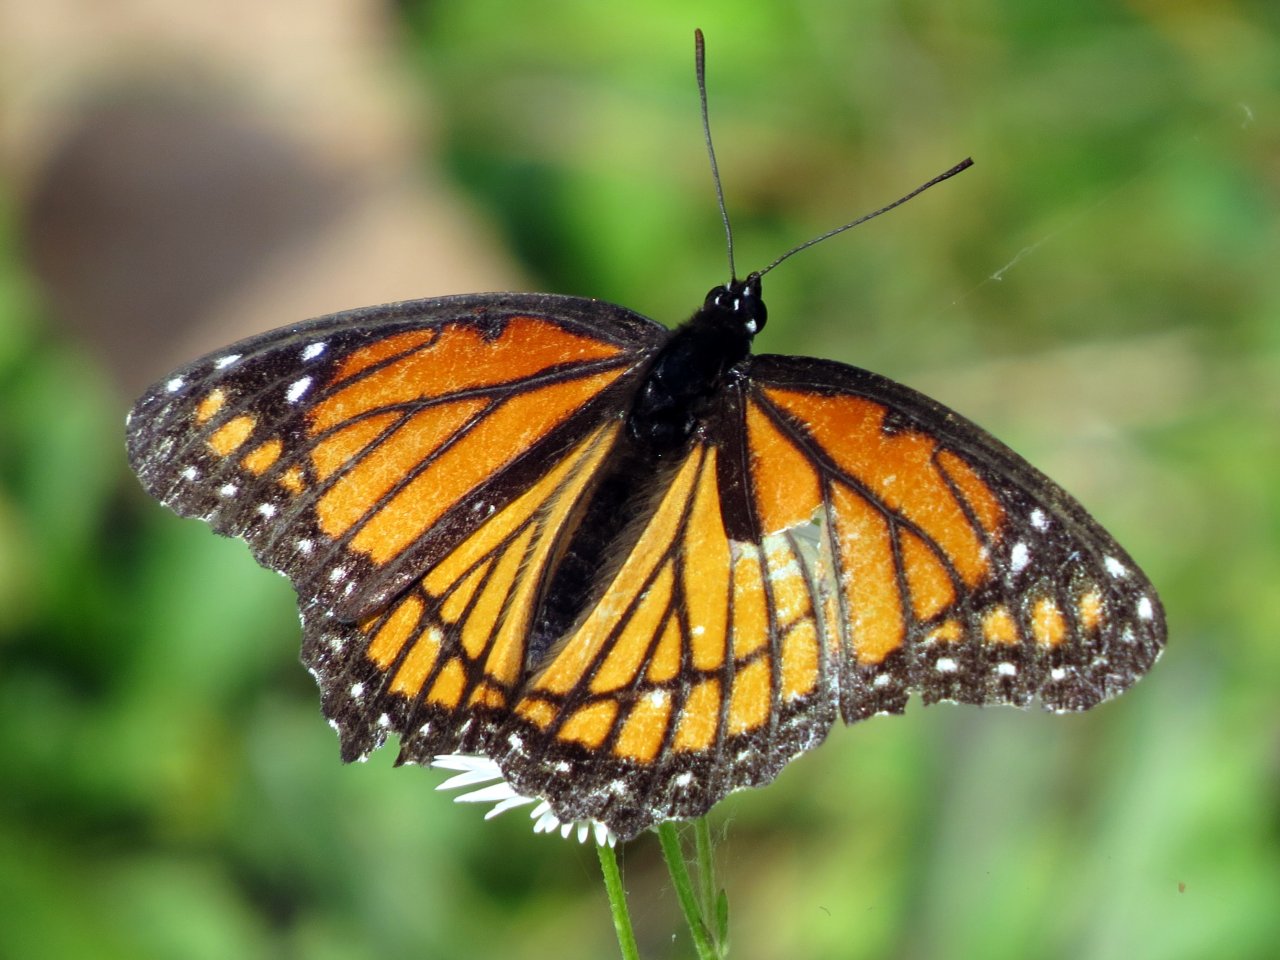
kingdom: Animalia
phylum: Arthropoda
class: Insecta
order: Lepidoptera
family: Nymphalidae
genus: Limenitis
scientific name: Limenitis archippus
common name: Viceroy
